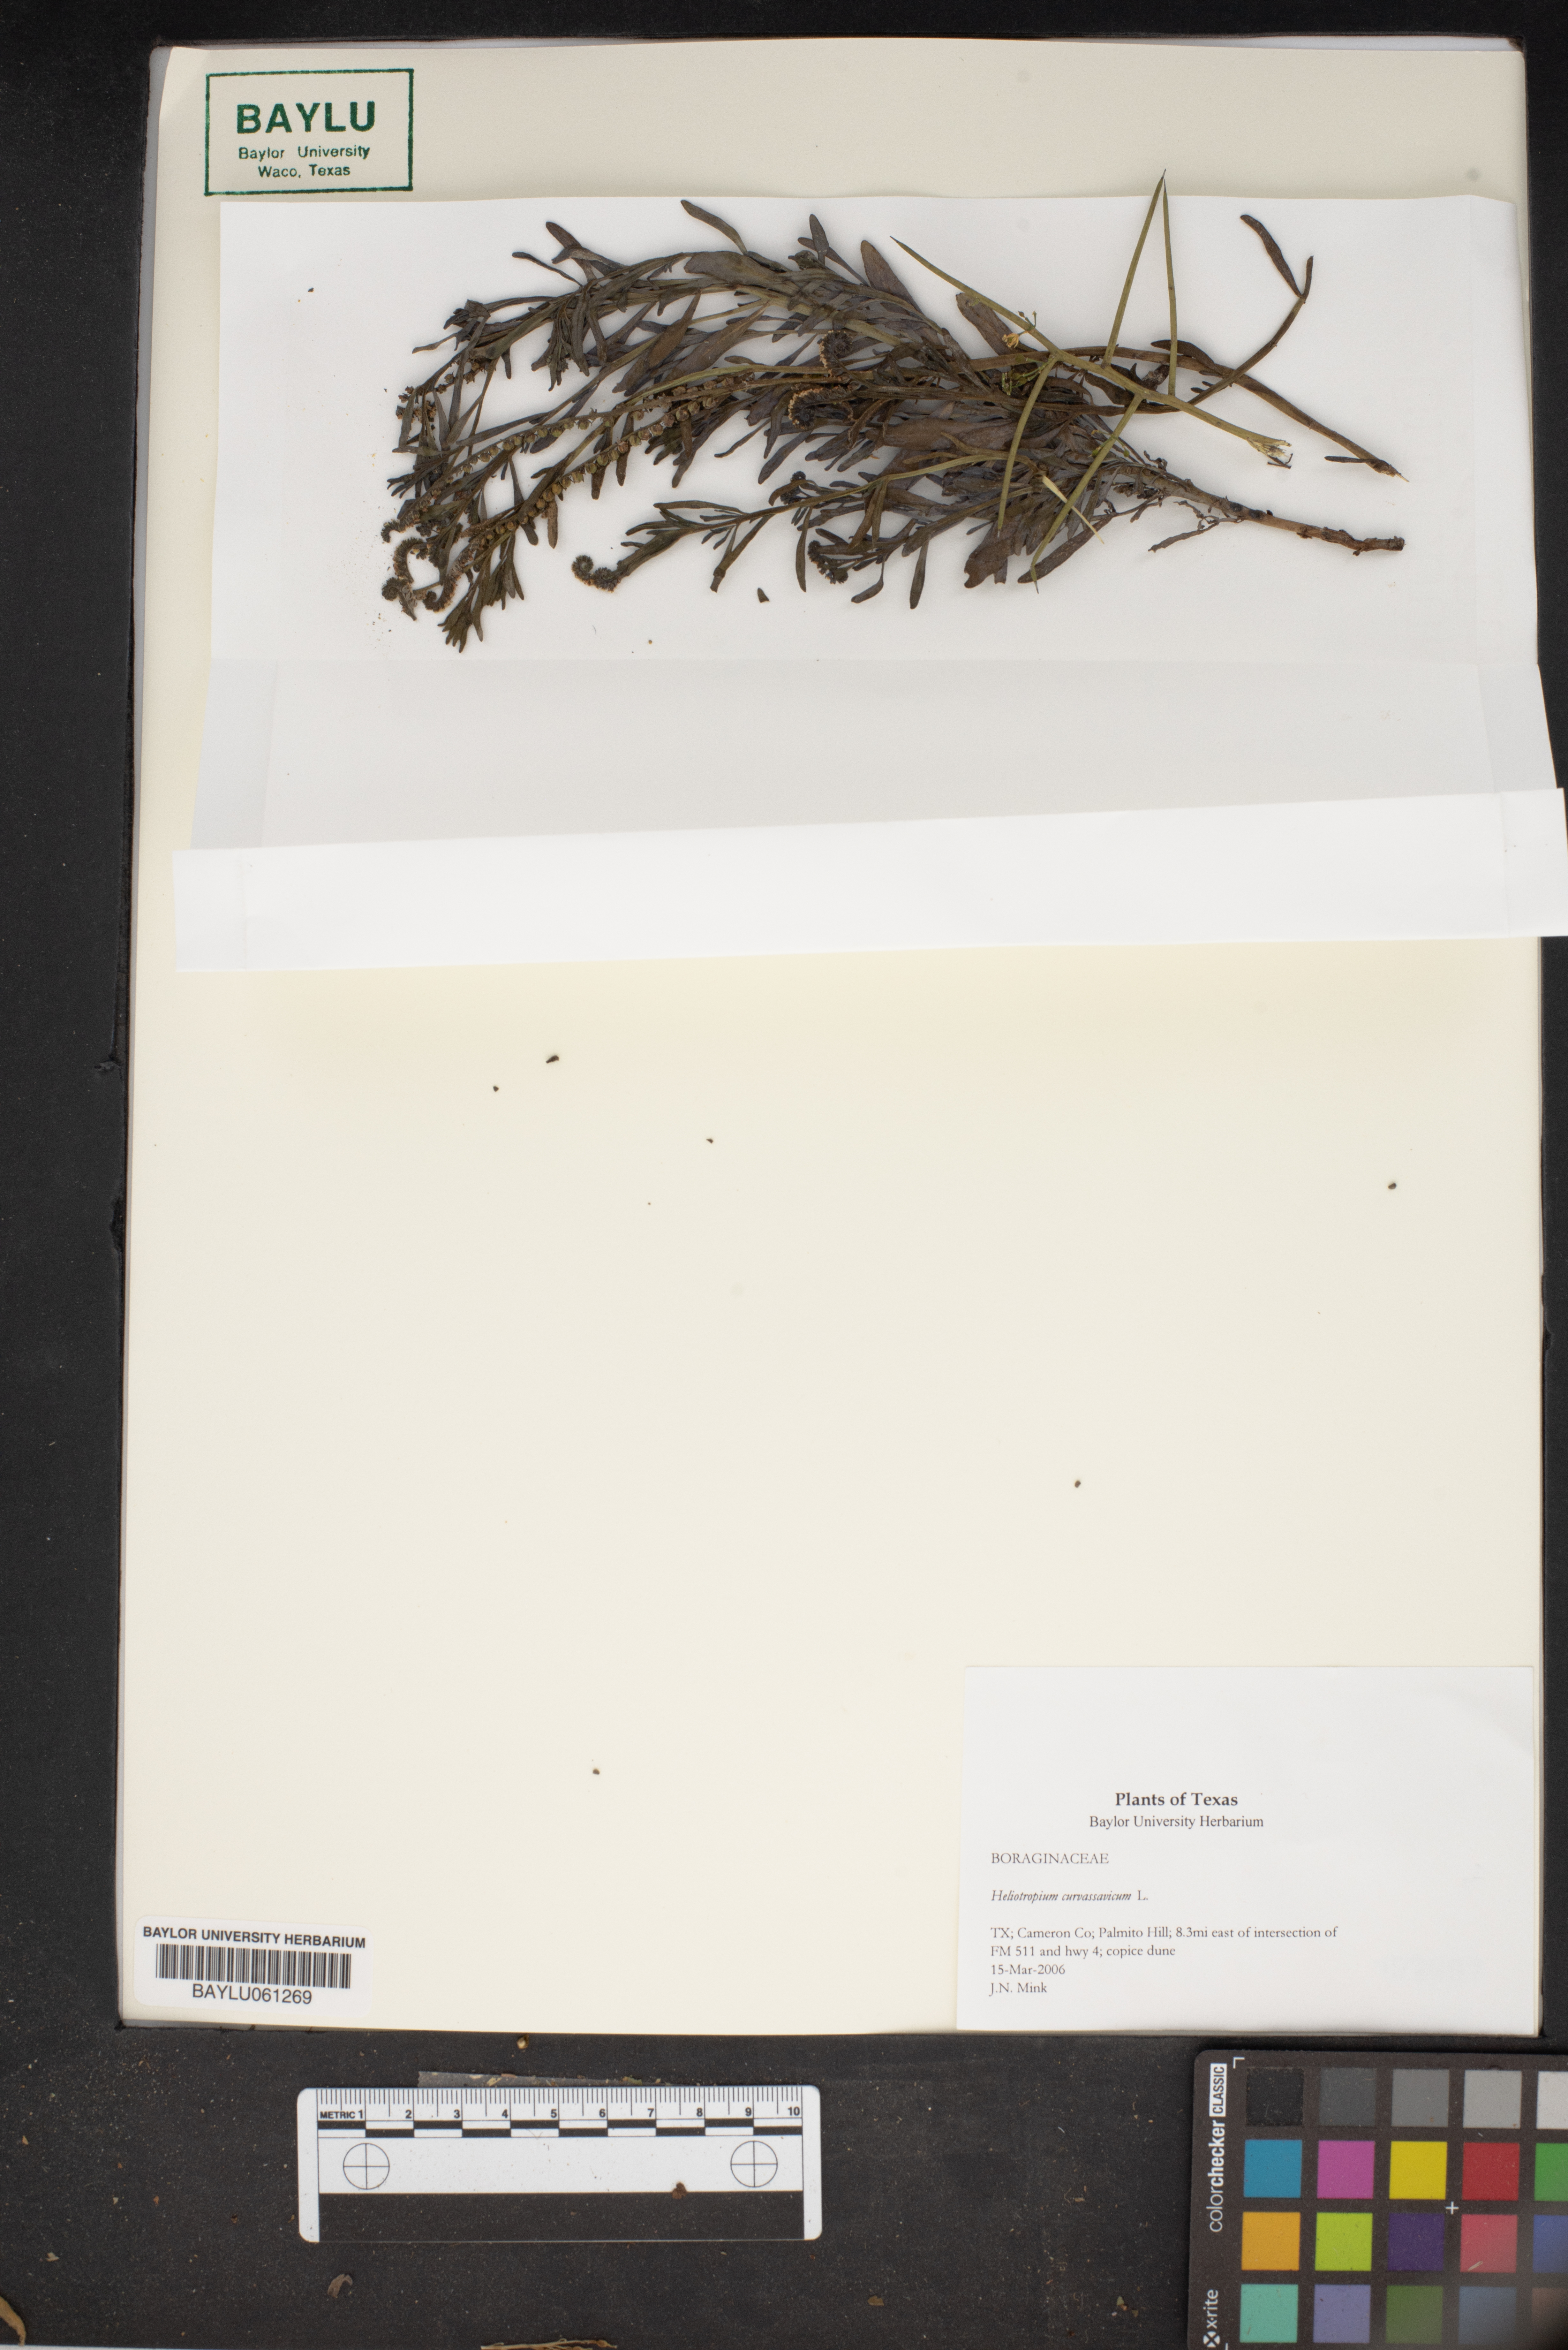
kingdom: Plantae
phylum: Tracheophyta
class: Magnoliopsida
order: Boraginales
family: Heliotropiaceae
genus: Heliotropium
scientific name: Heliotropium curassavicum
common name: Seaside heliotrope
